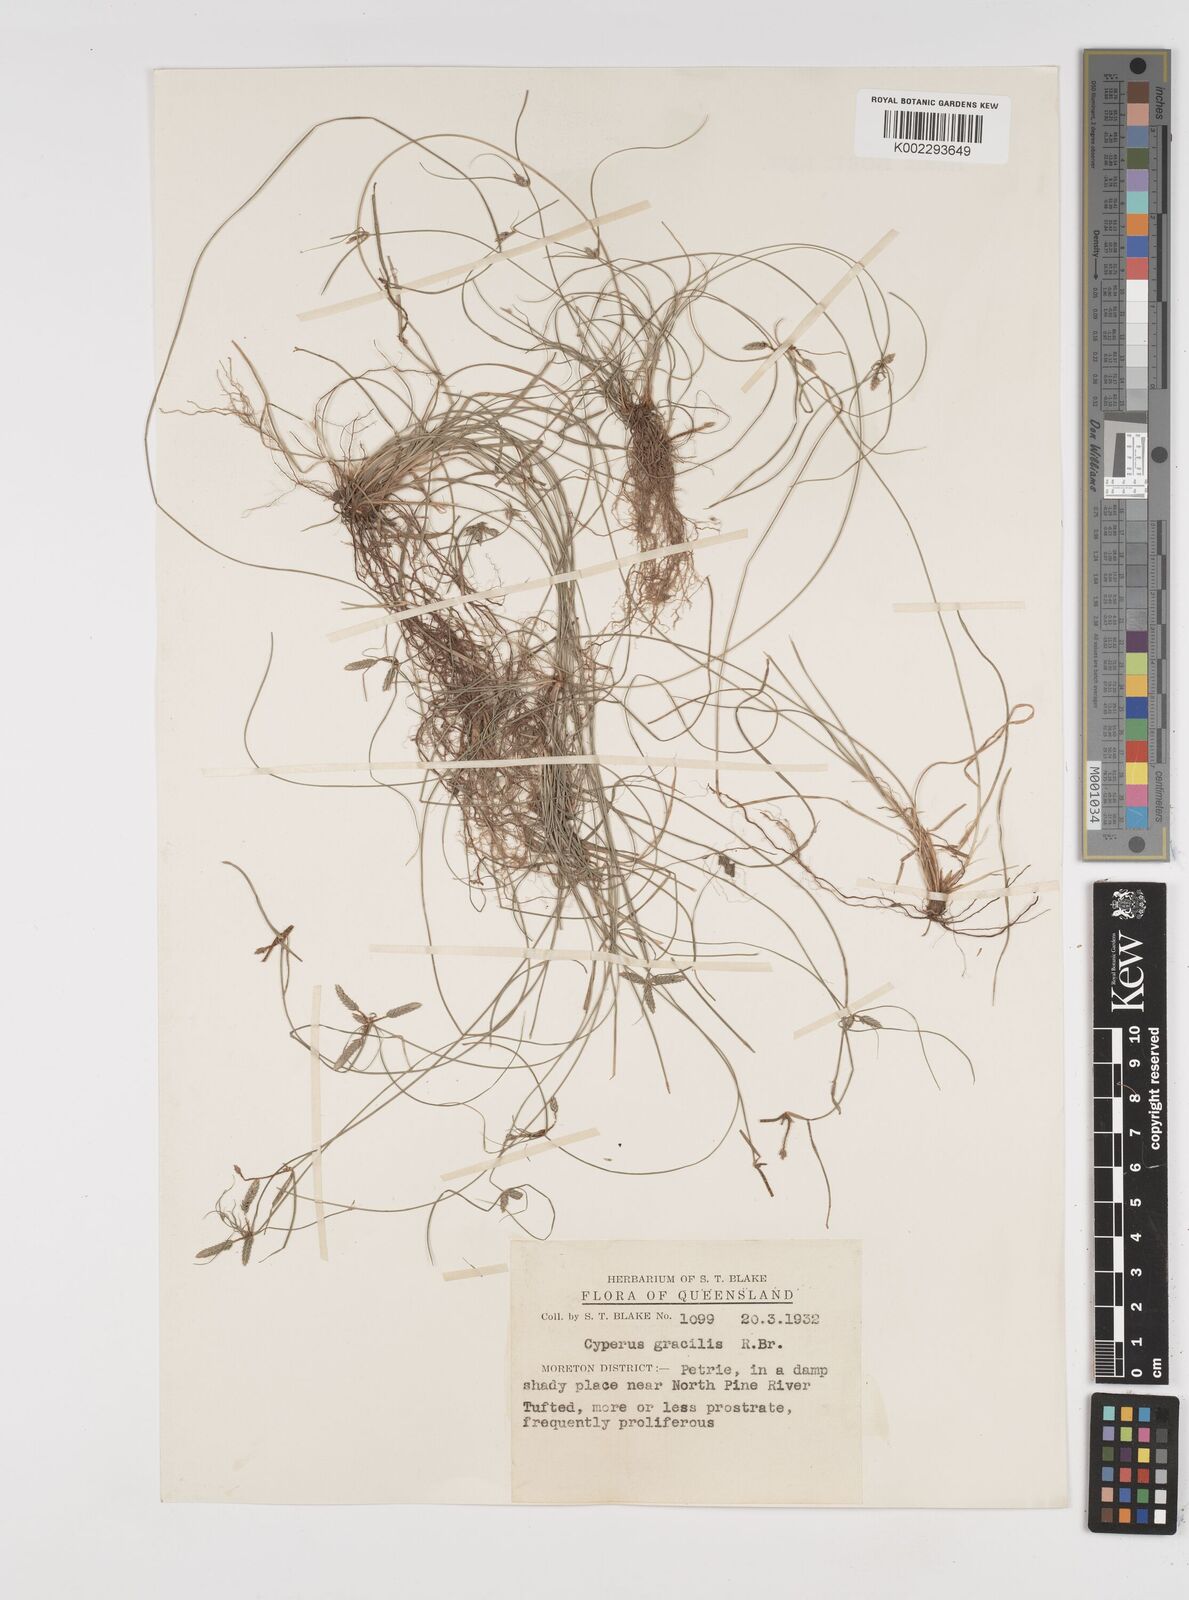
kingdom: Plantae
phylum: Tracheophyta
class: Liliopsida
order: Poales
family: Cyperaceae
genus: Cyperus
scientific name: Cyperus gracilis
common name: Slimjim flatsedge
